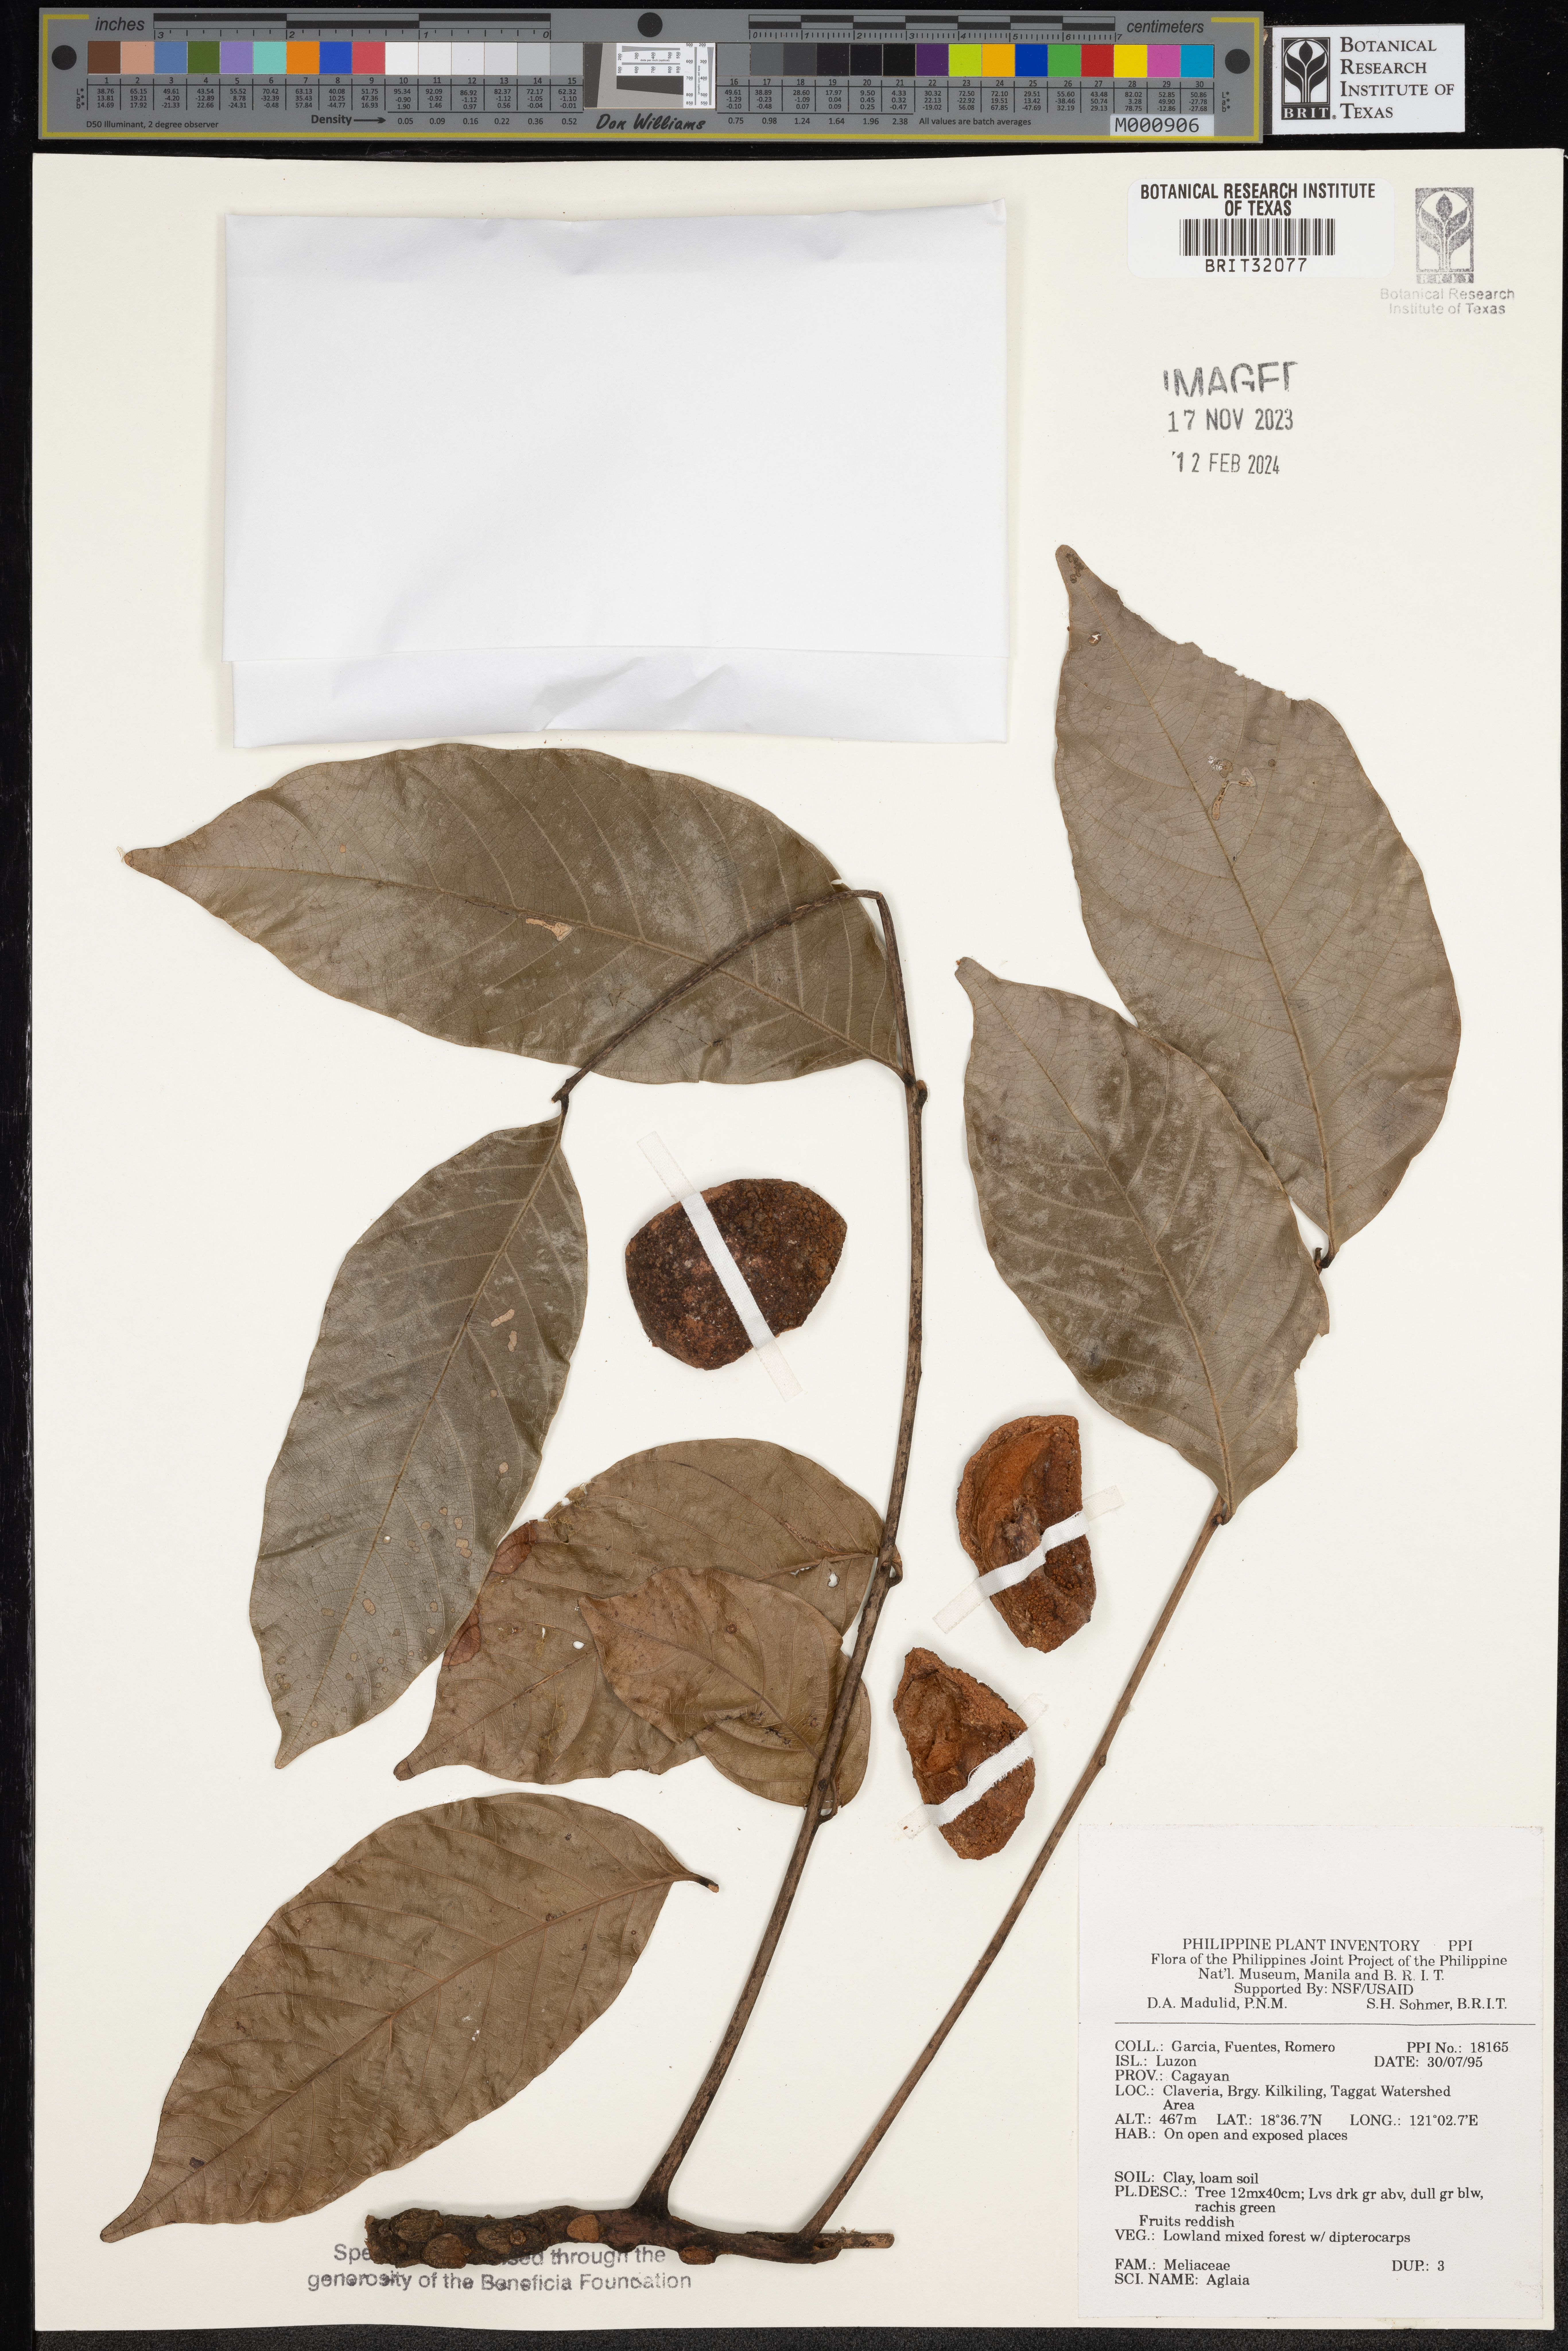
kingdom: Plantae
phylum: Tracheophyta
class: Magnoliopsida
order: Sapindales
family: Meliaceae
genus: Aglaia
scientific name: Aglaia
